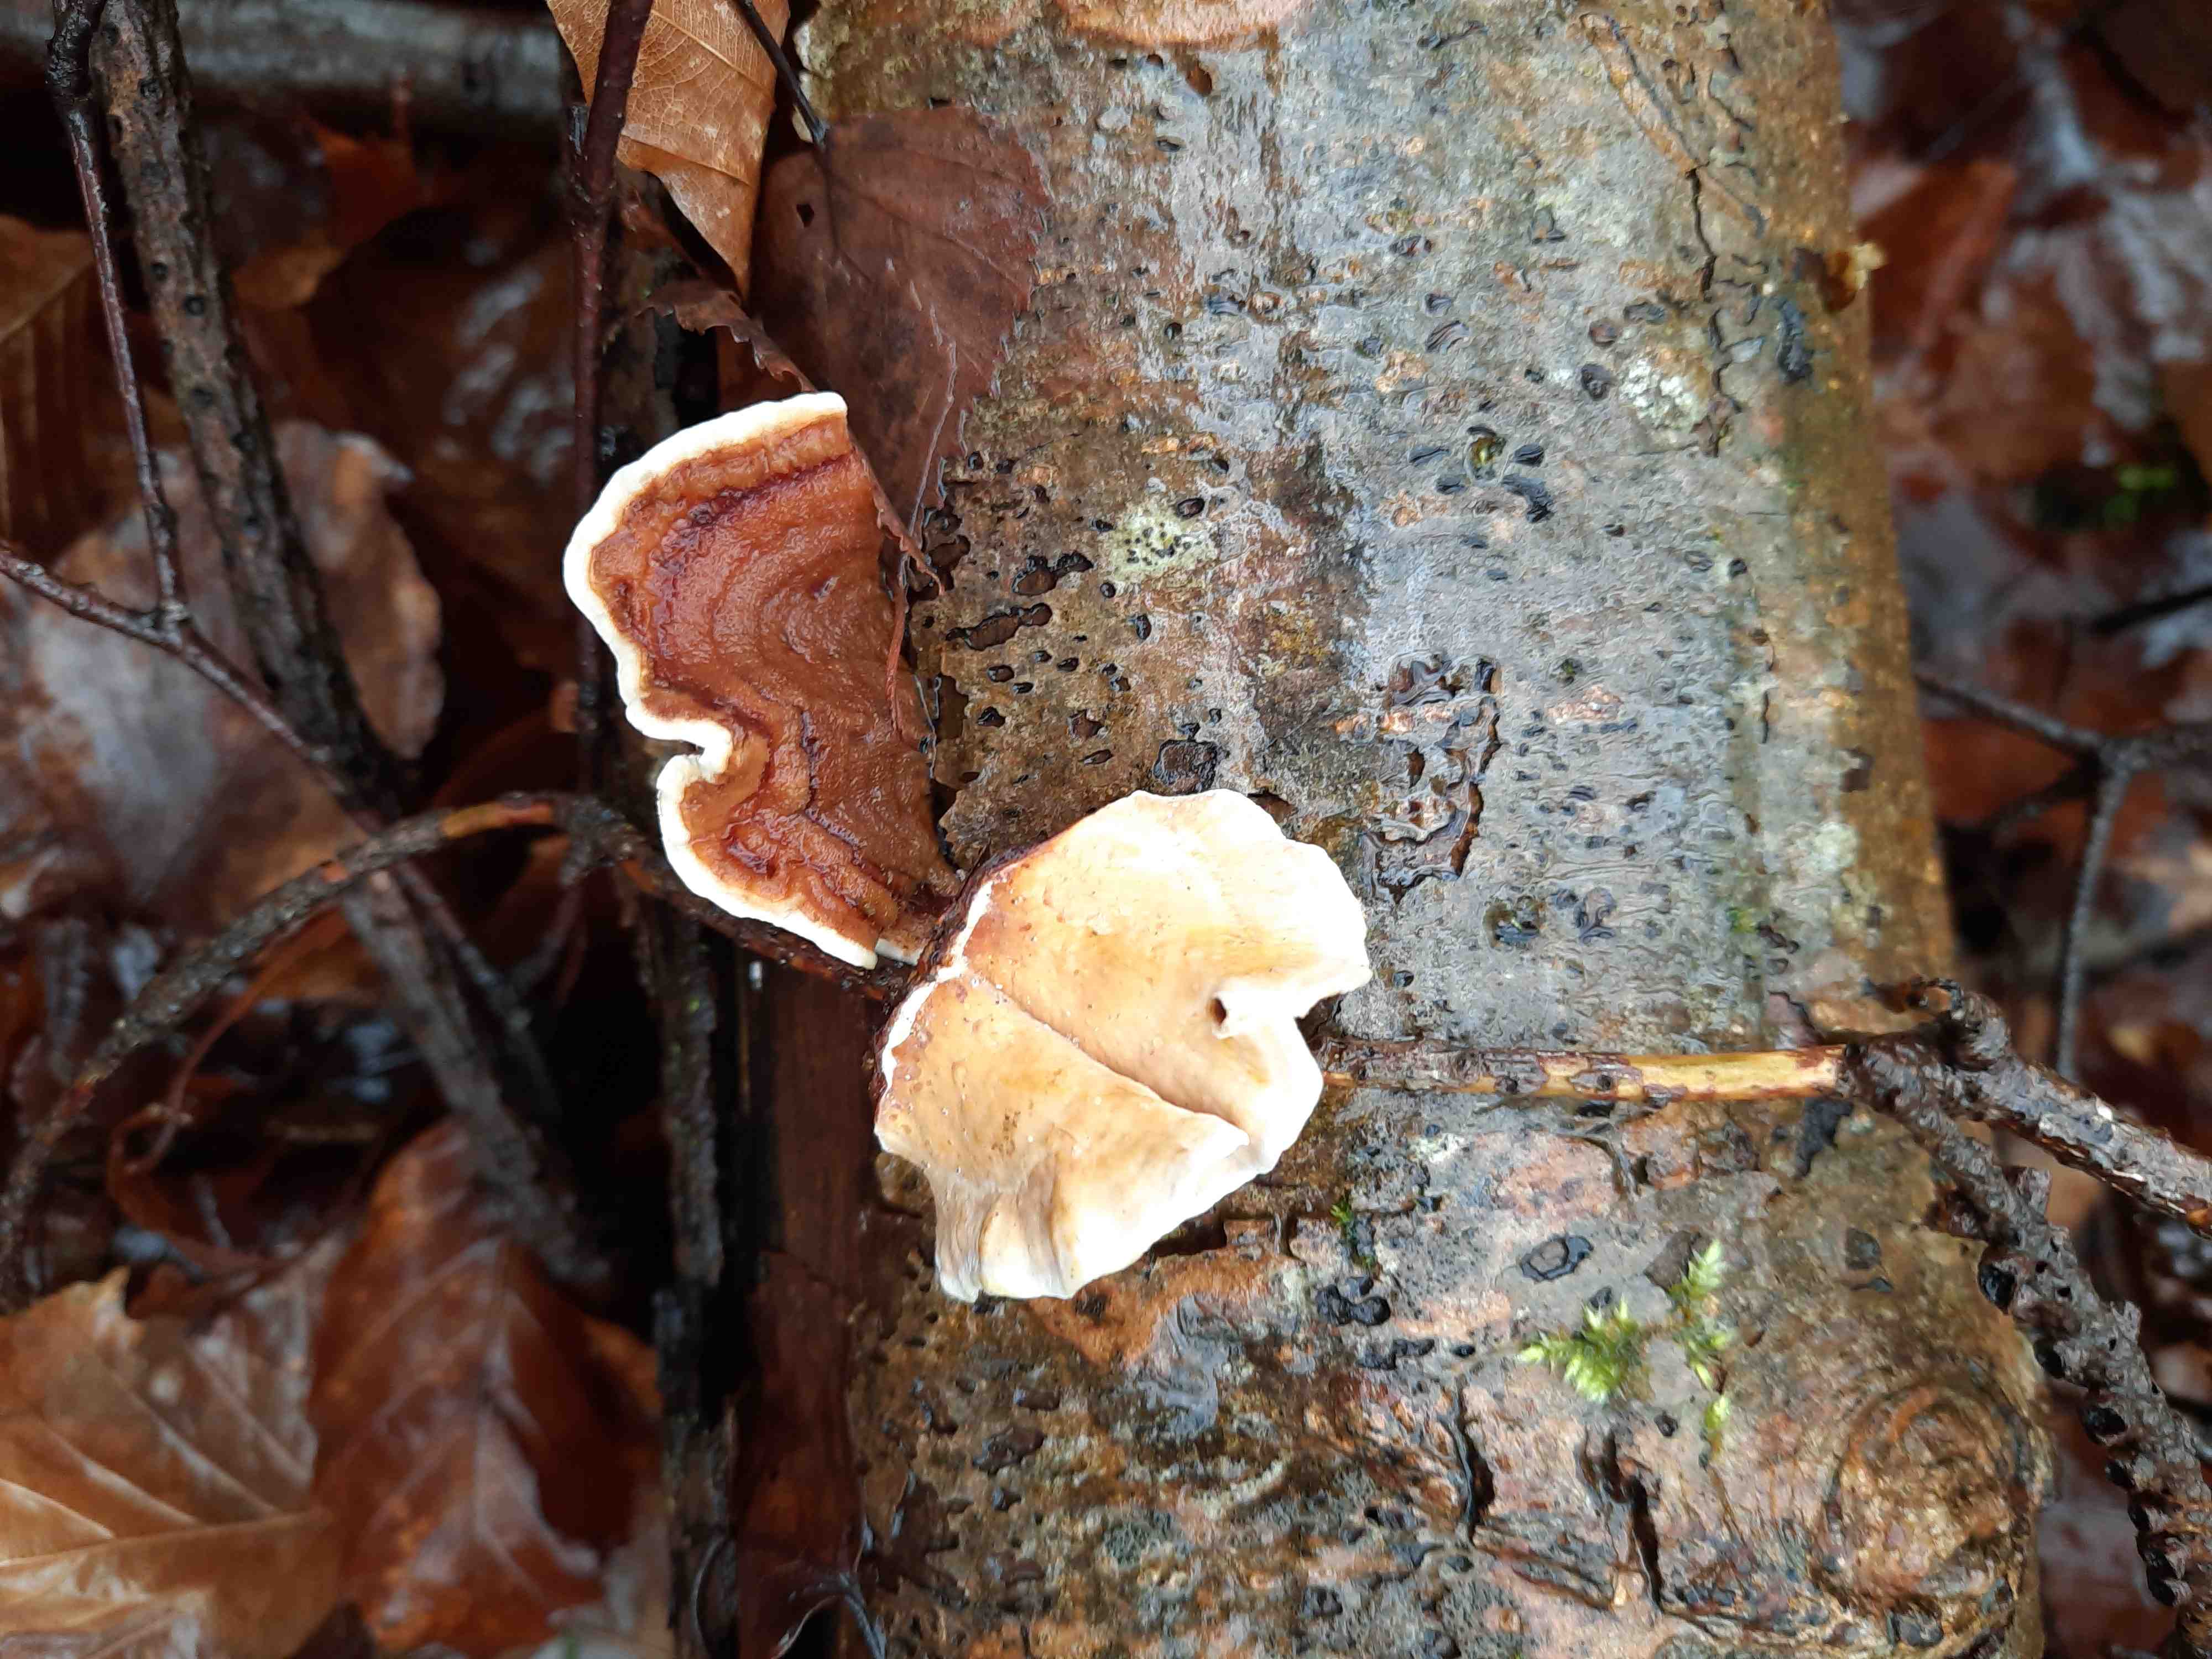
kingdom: Fungi
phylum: Basidiomycota
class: Agaricomycetes
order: Russulales
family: Stereaceae
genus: Stereum
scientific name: Stereum subtomentosum
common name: smuk lædersvamp
